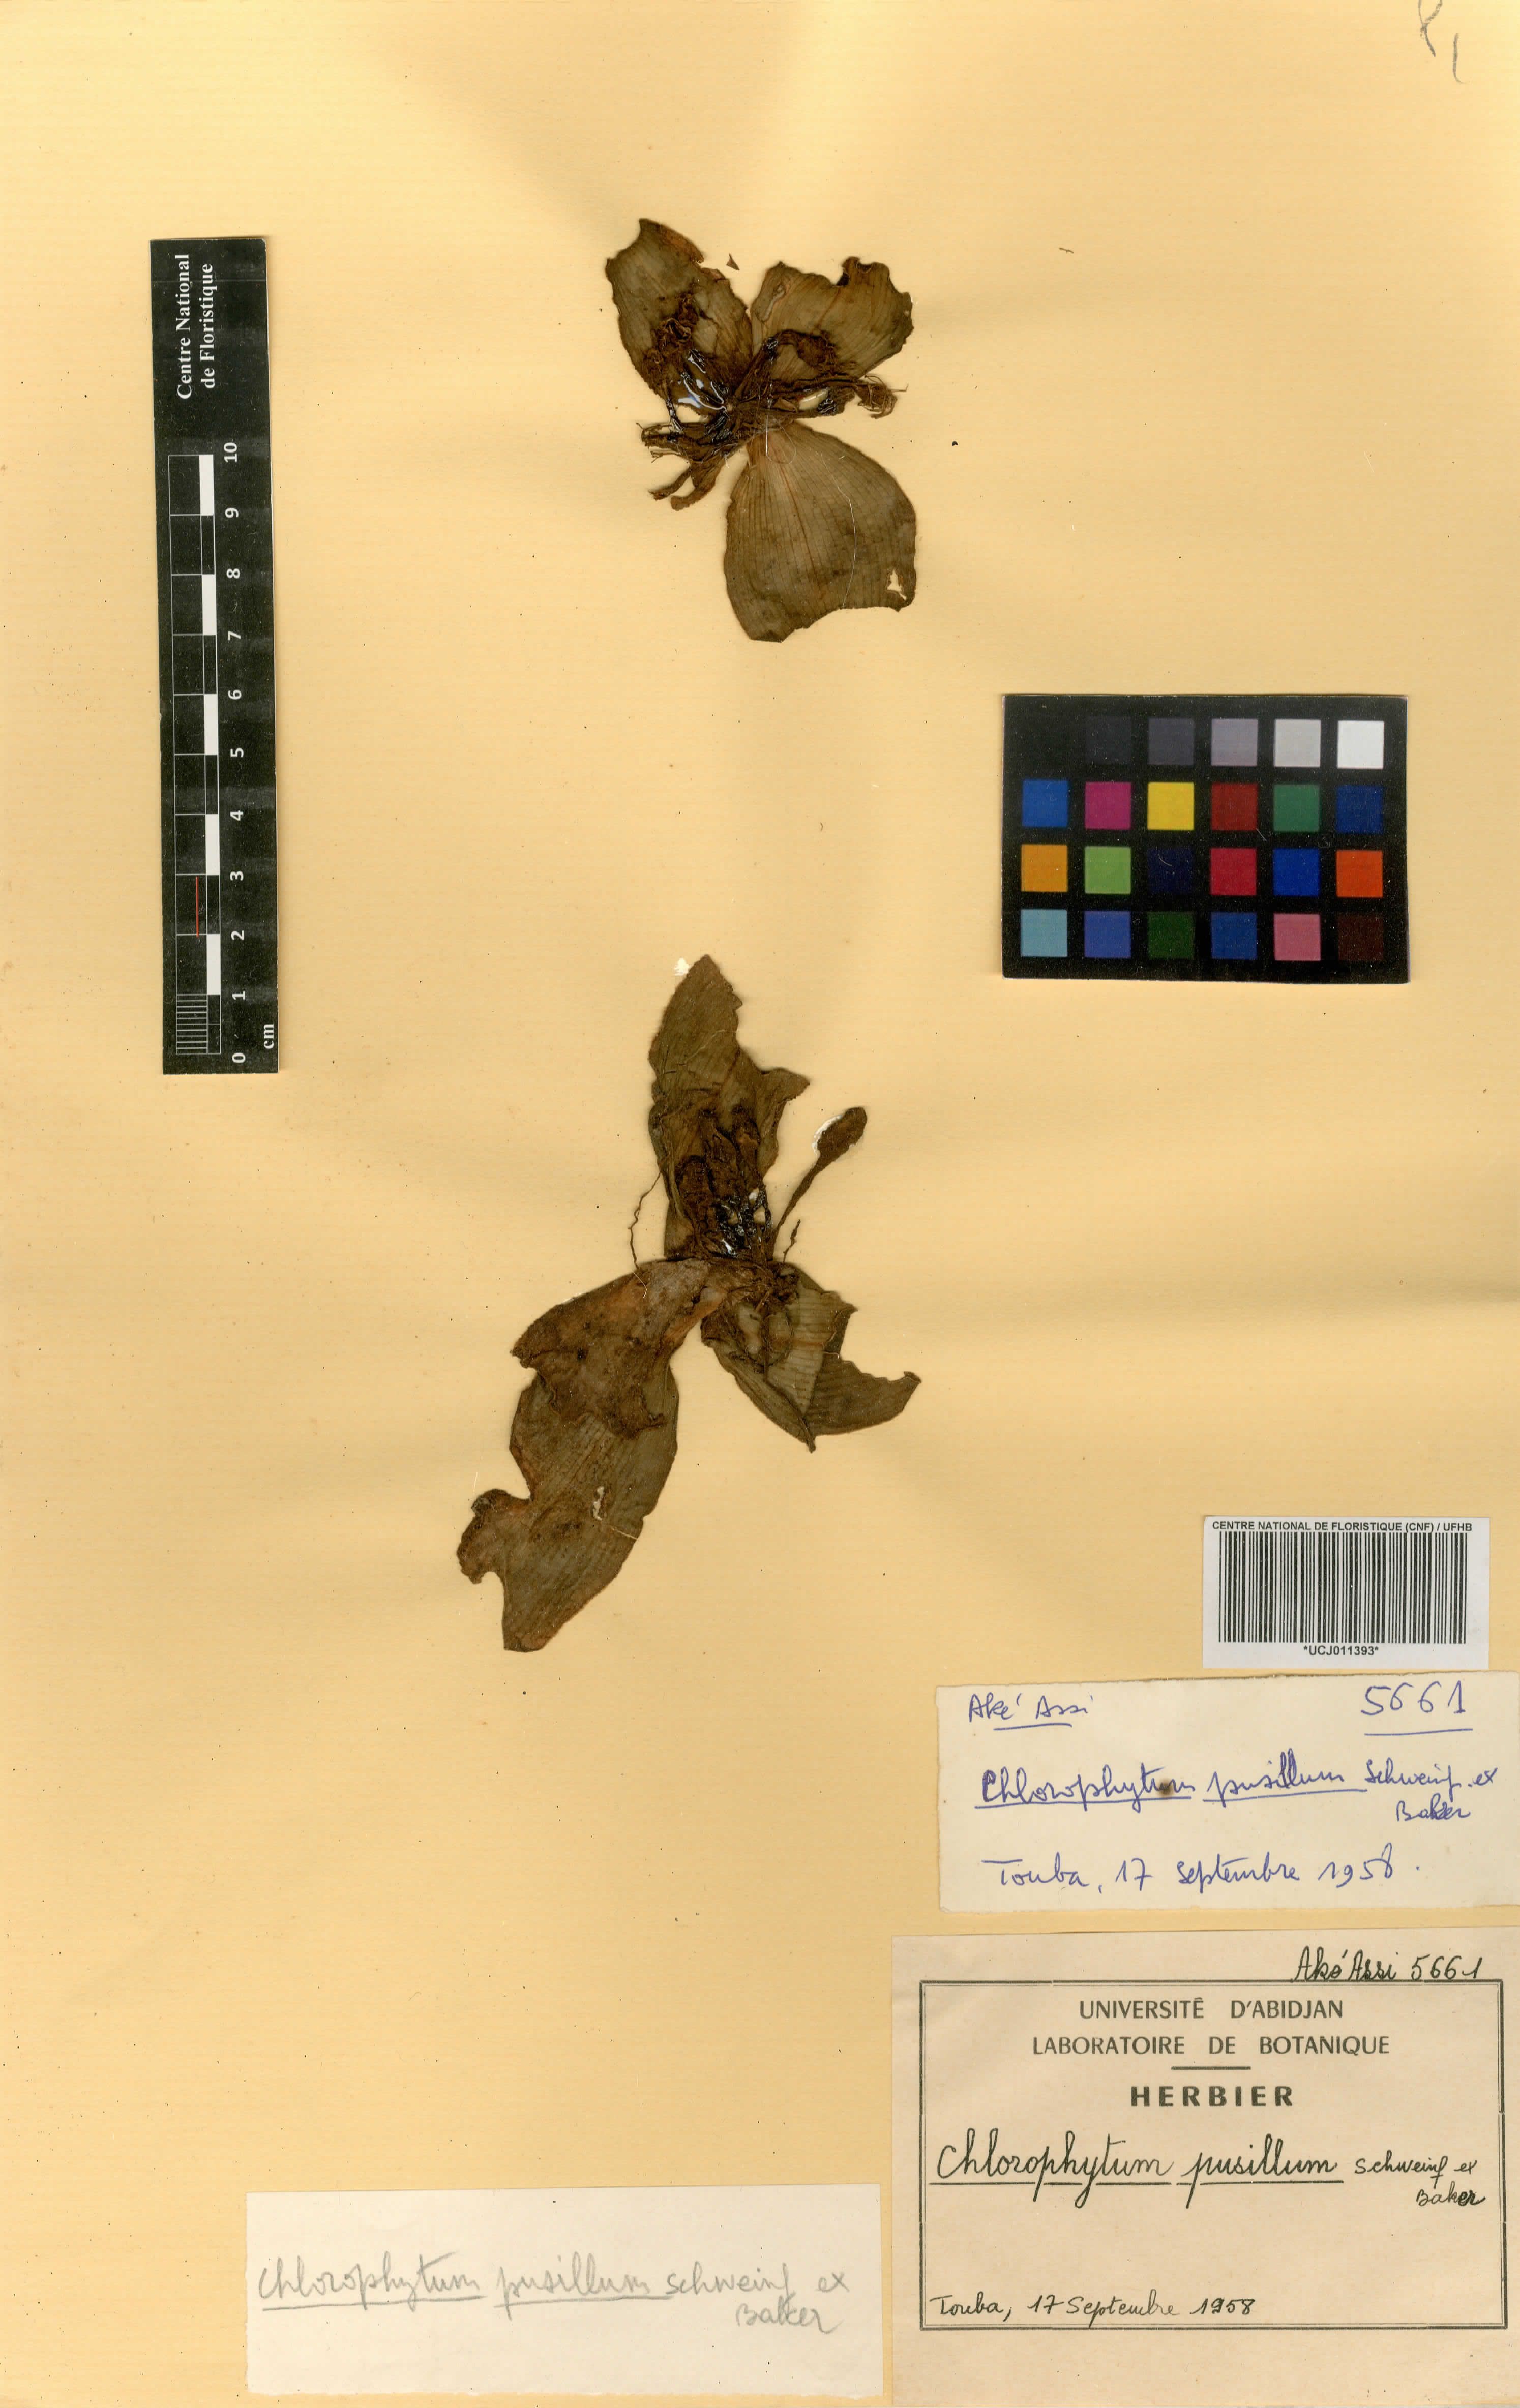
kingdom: Plantae
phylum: Tracheophyta
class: Liliopsida
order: Asparagales
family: Asparagaceae
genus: Chlorophytum
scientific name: Chlorophytum pusillum
